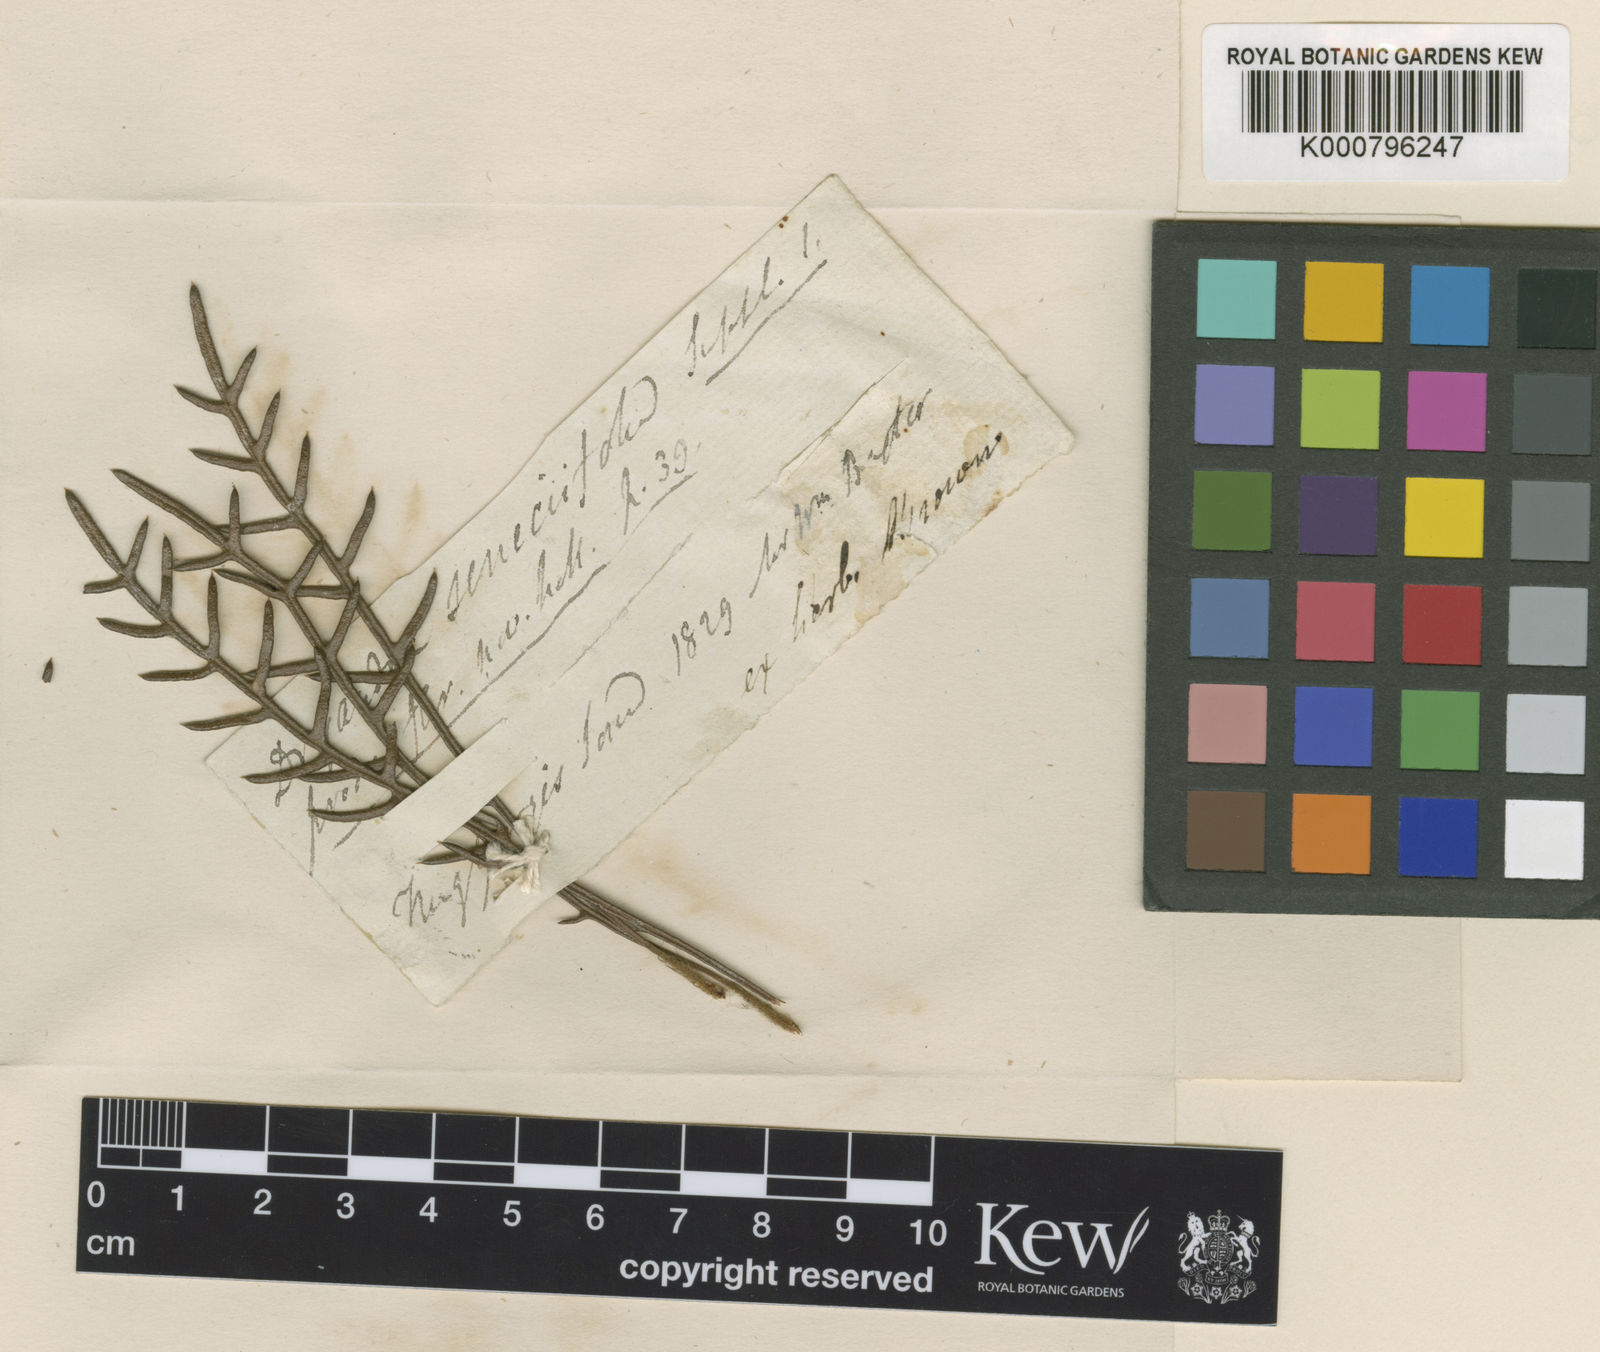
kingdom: Plantae
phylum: Tracheophyta
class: Magnoliopsida
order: Proteales
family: Proteaceae
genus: Banksia
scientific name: Banksia seneciifolia
